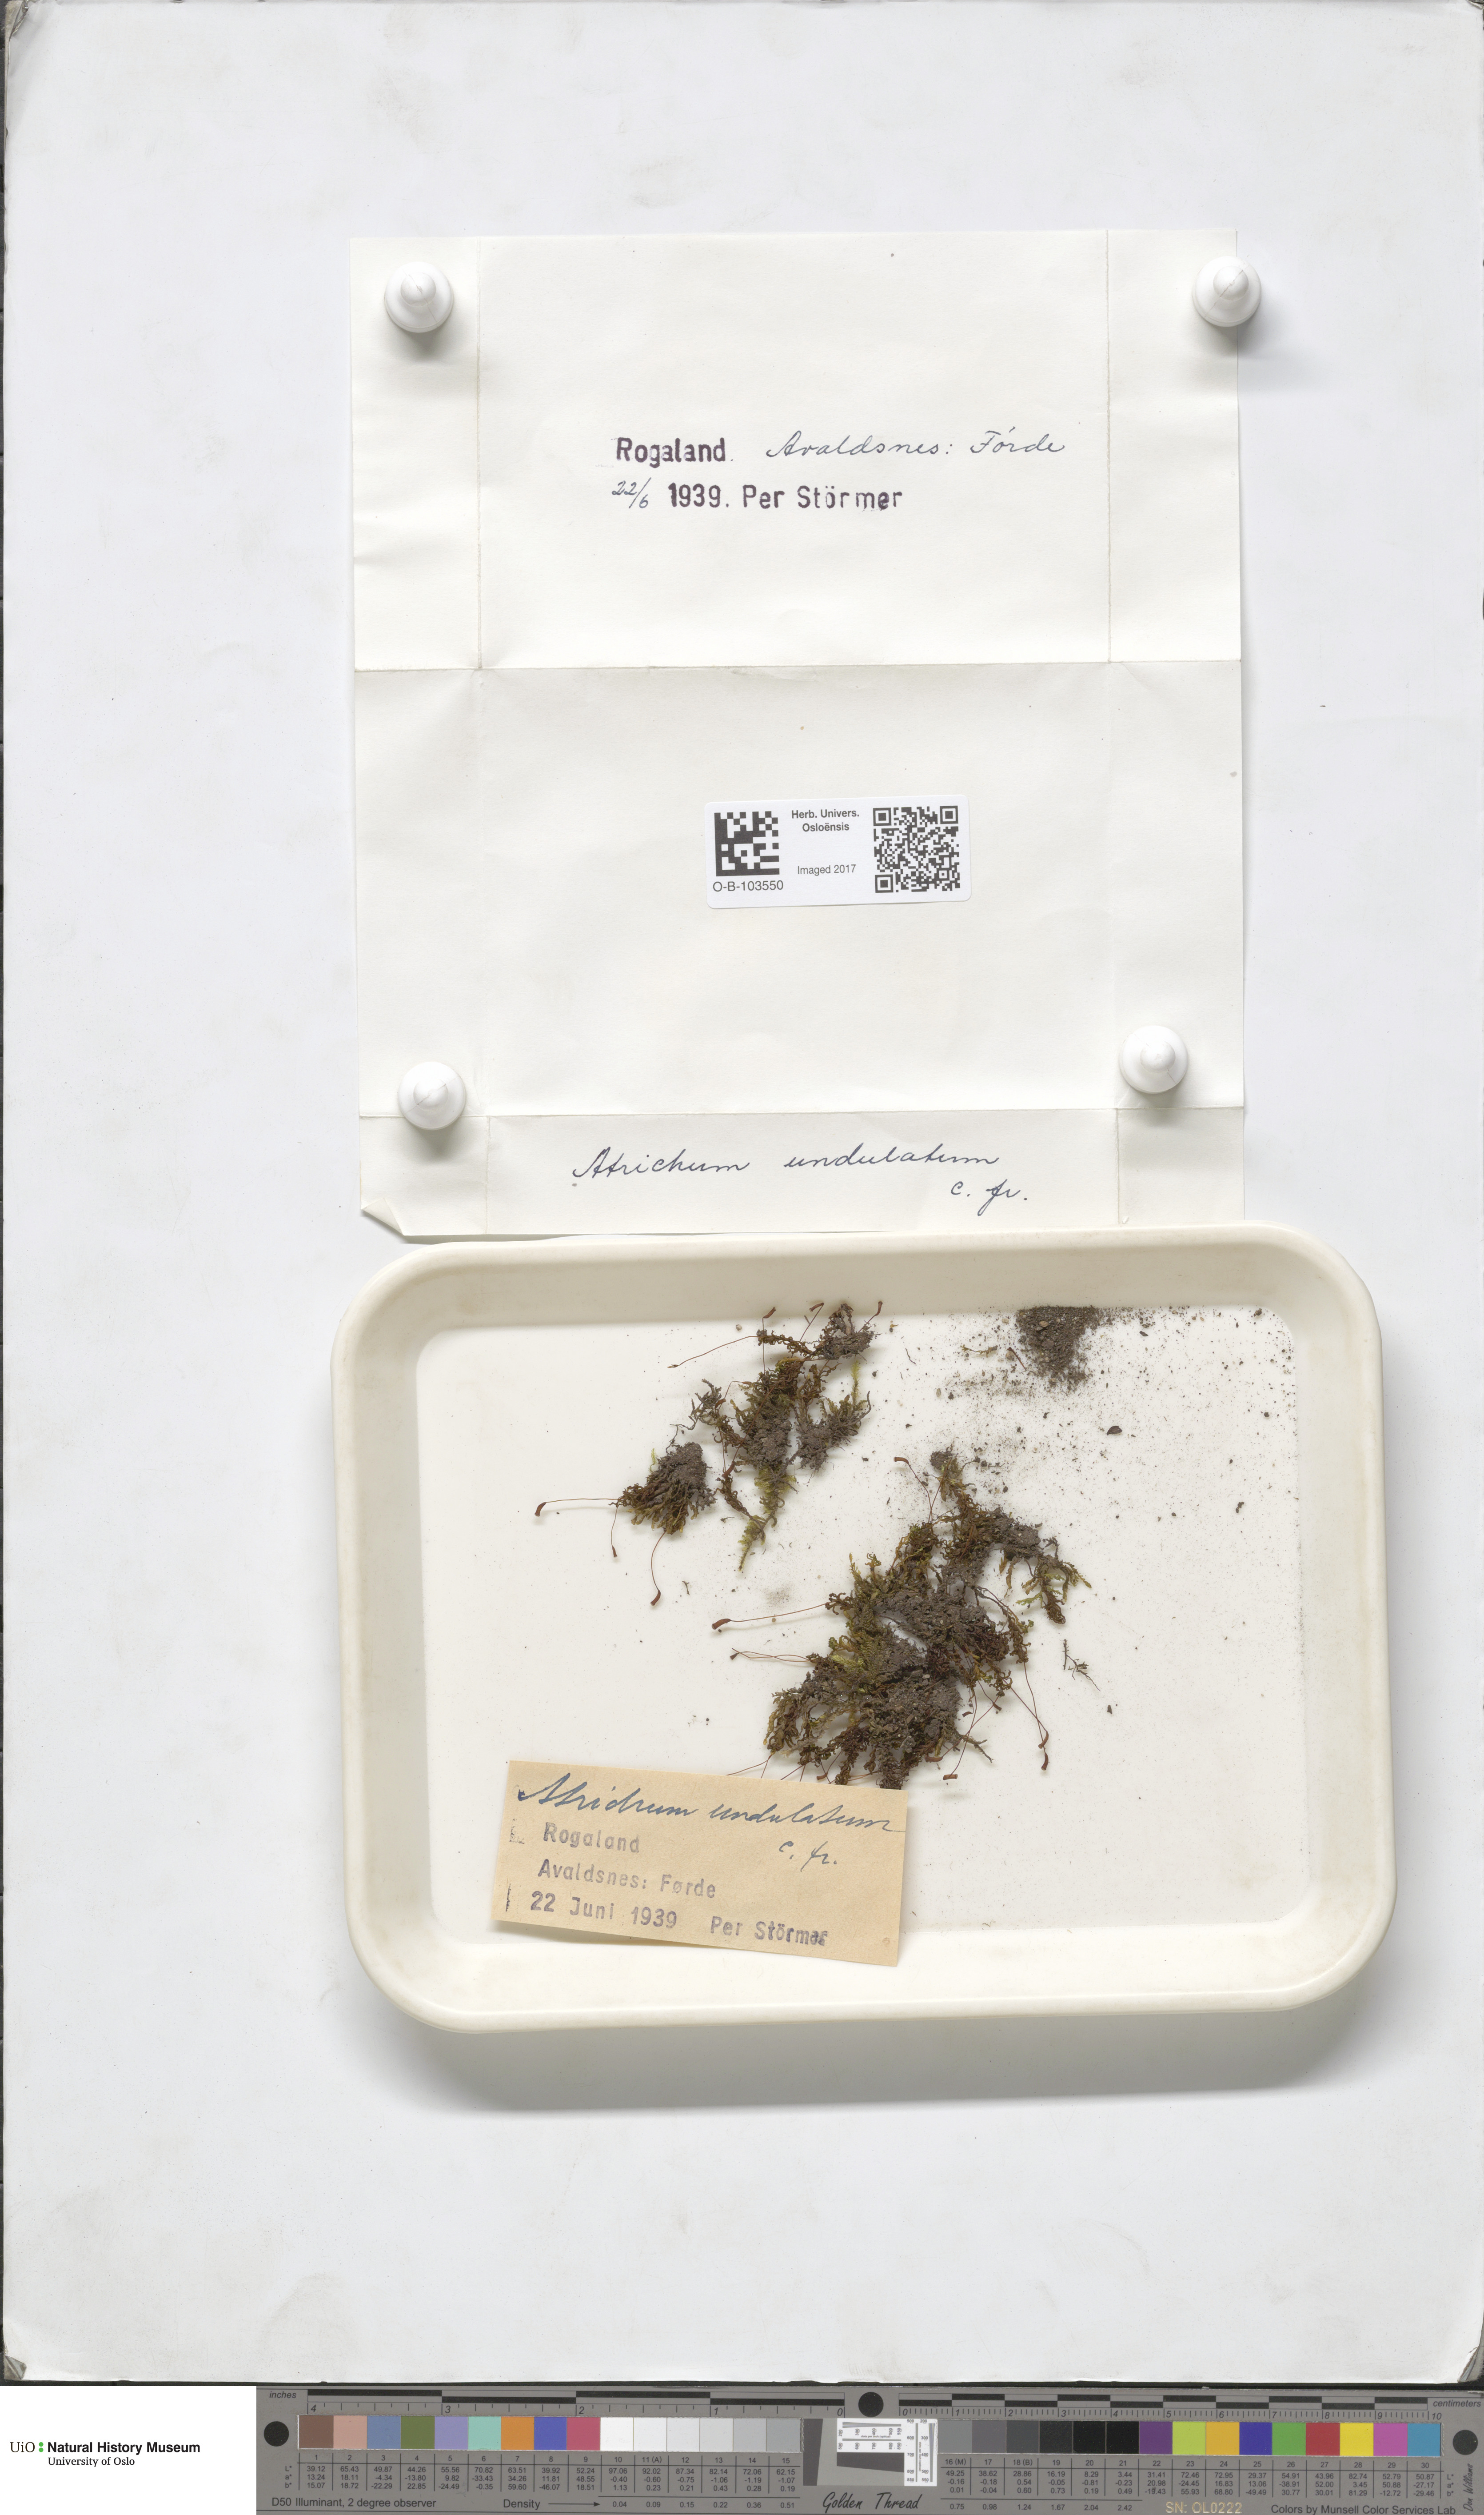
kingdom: Plantae
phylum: Bryophyta
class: Polytrichopsida
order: Polytrichales
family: Polytrichaceae
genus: Atrichum
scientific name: Atrichum undulatum
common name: Common smoothcap
